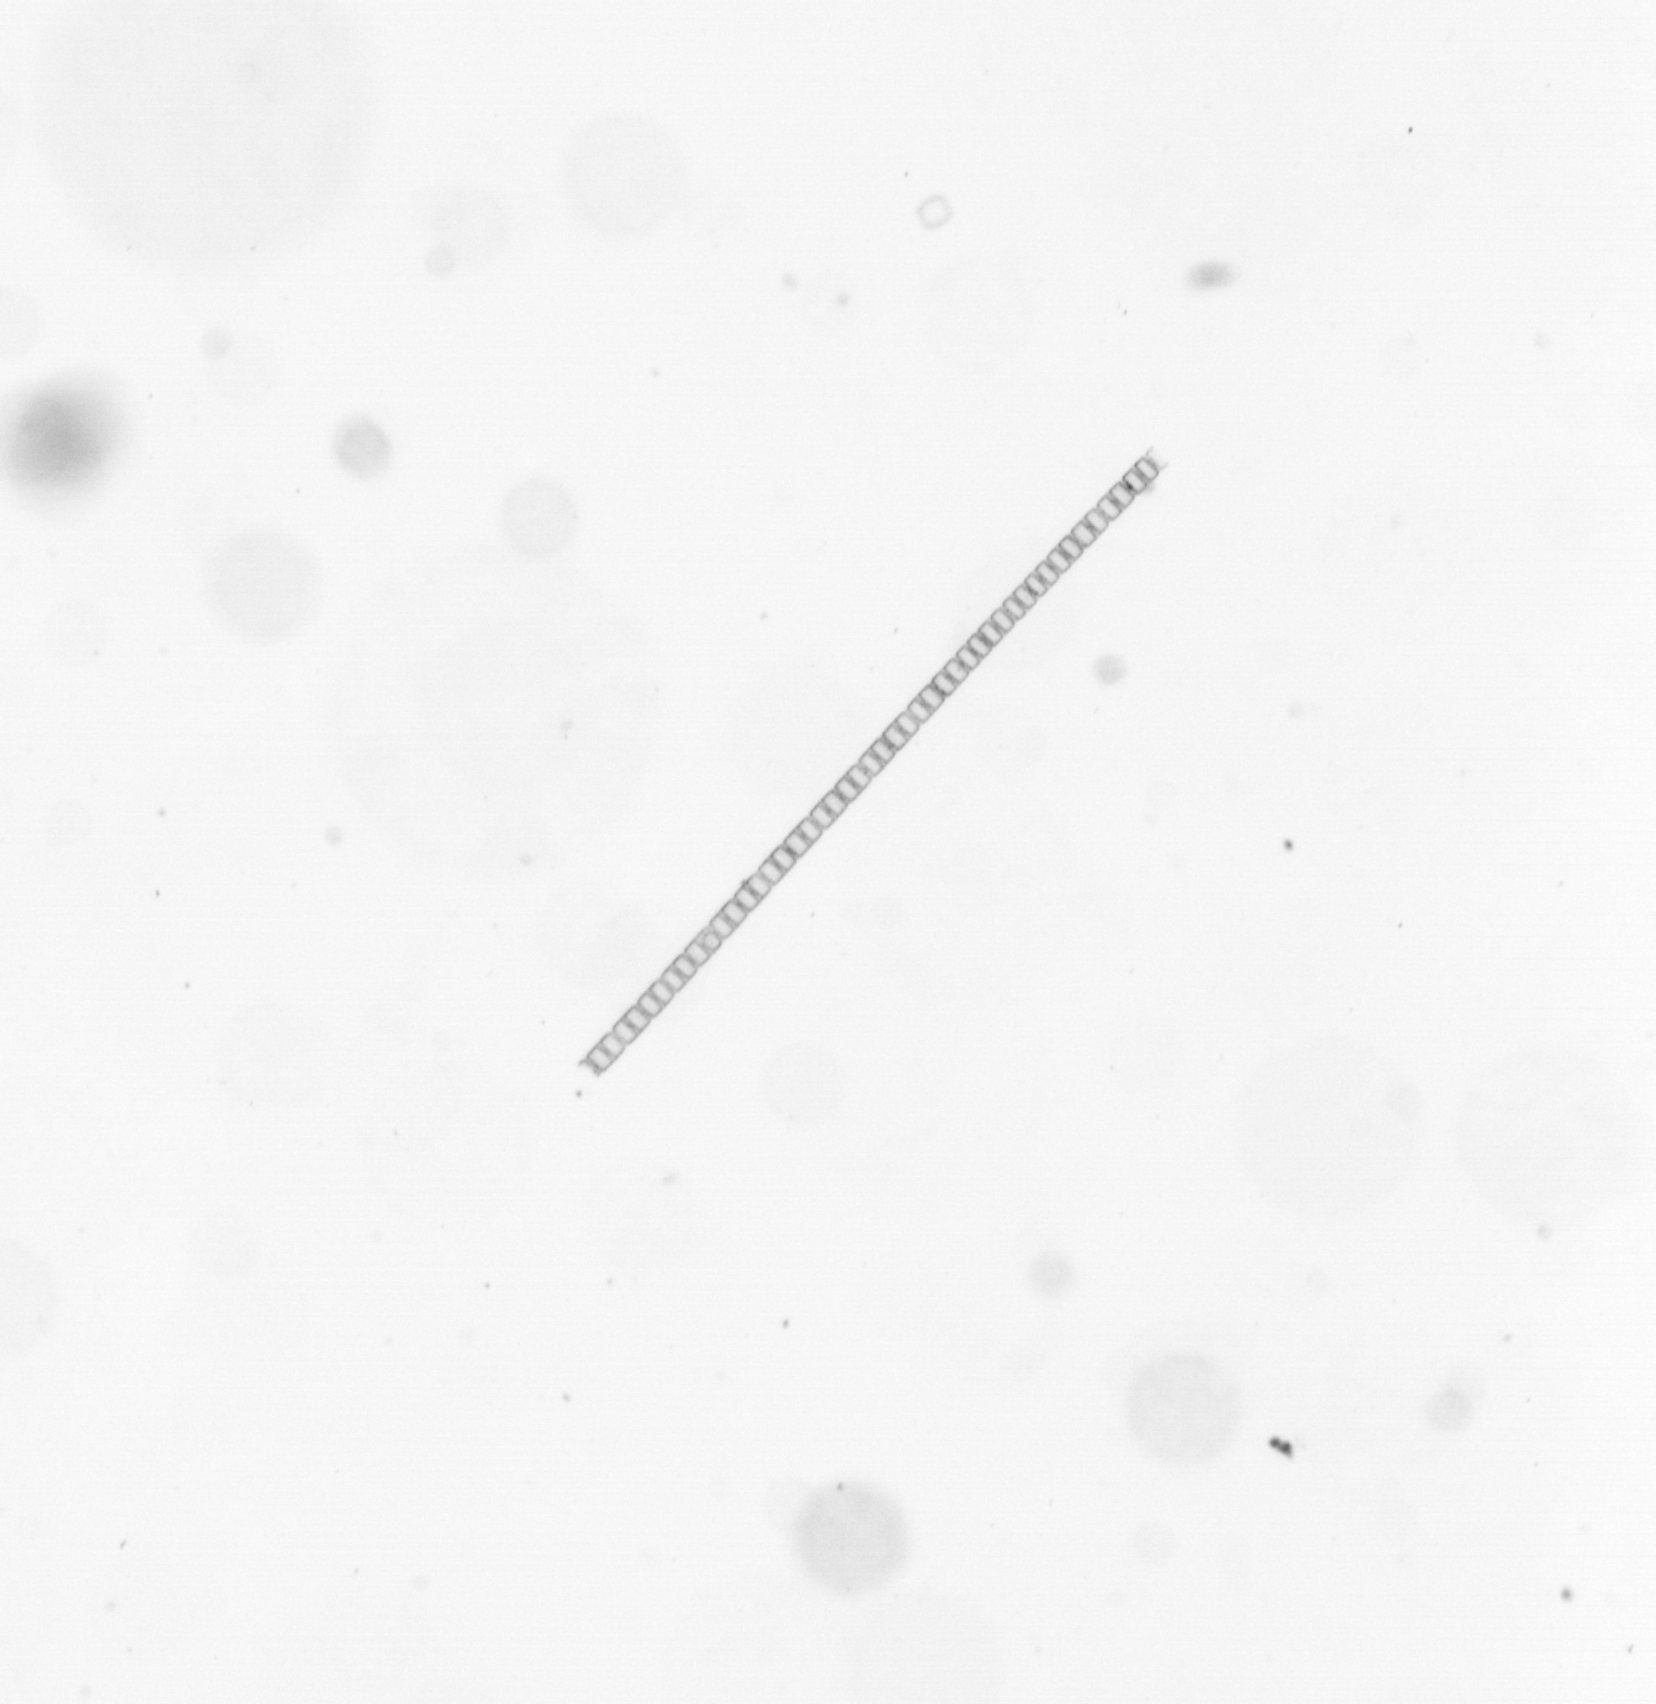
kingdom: Chromista
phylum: Ochrophyta
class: Bacillariophyceae
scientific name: Bacillariophyceae
